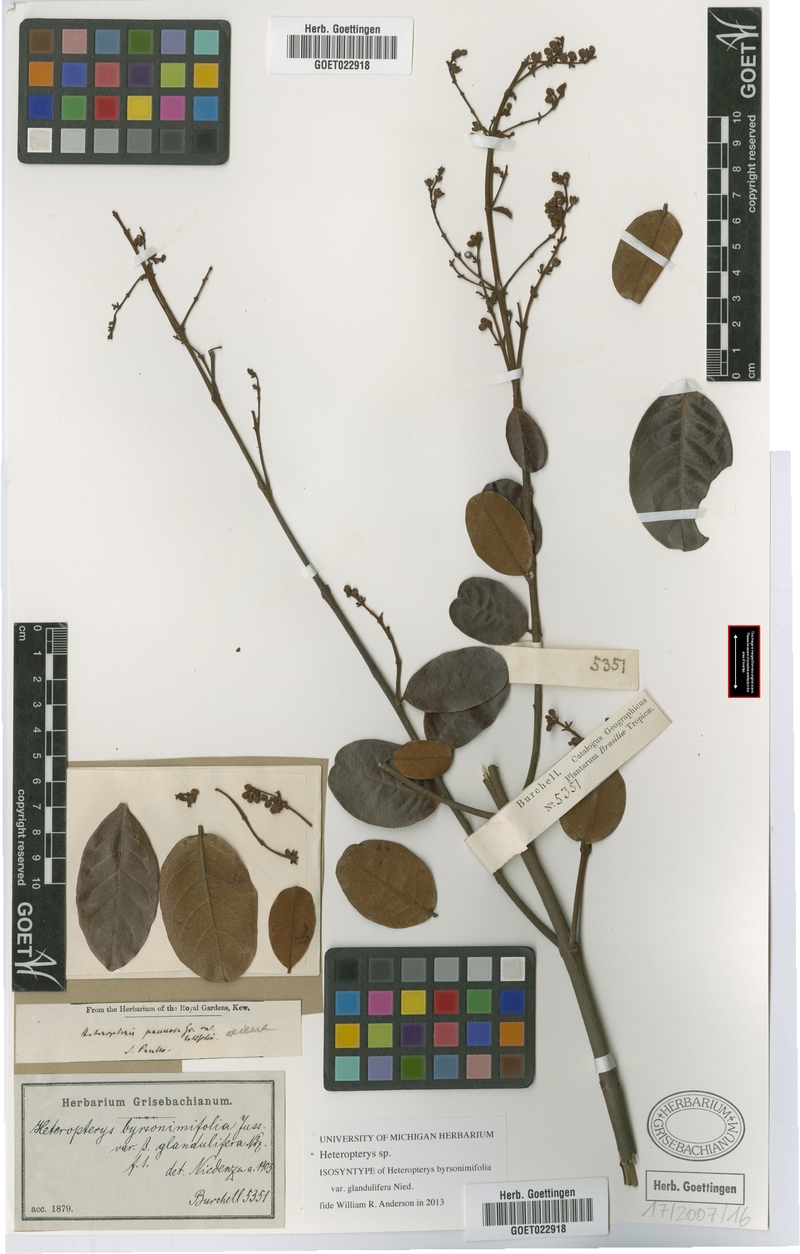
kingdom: Plantae
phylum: Tracheophyta
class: Magnoliopsida
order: Malpighiales
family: Malpighiaceae
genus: Heteropterys
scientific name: Heteropterys
